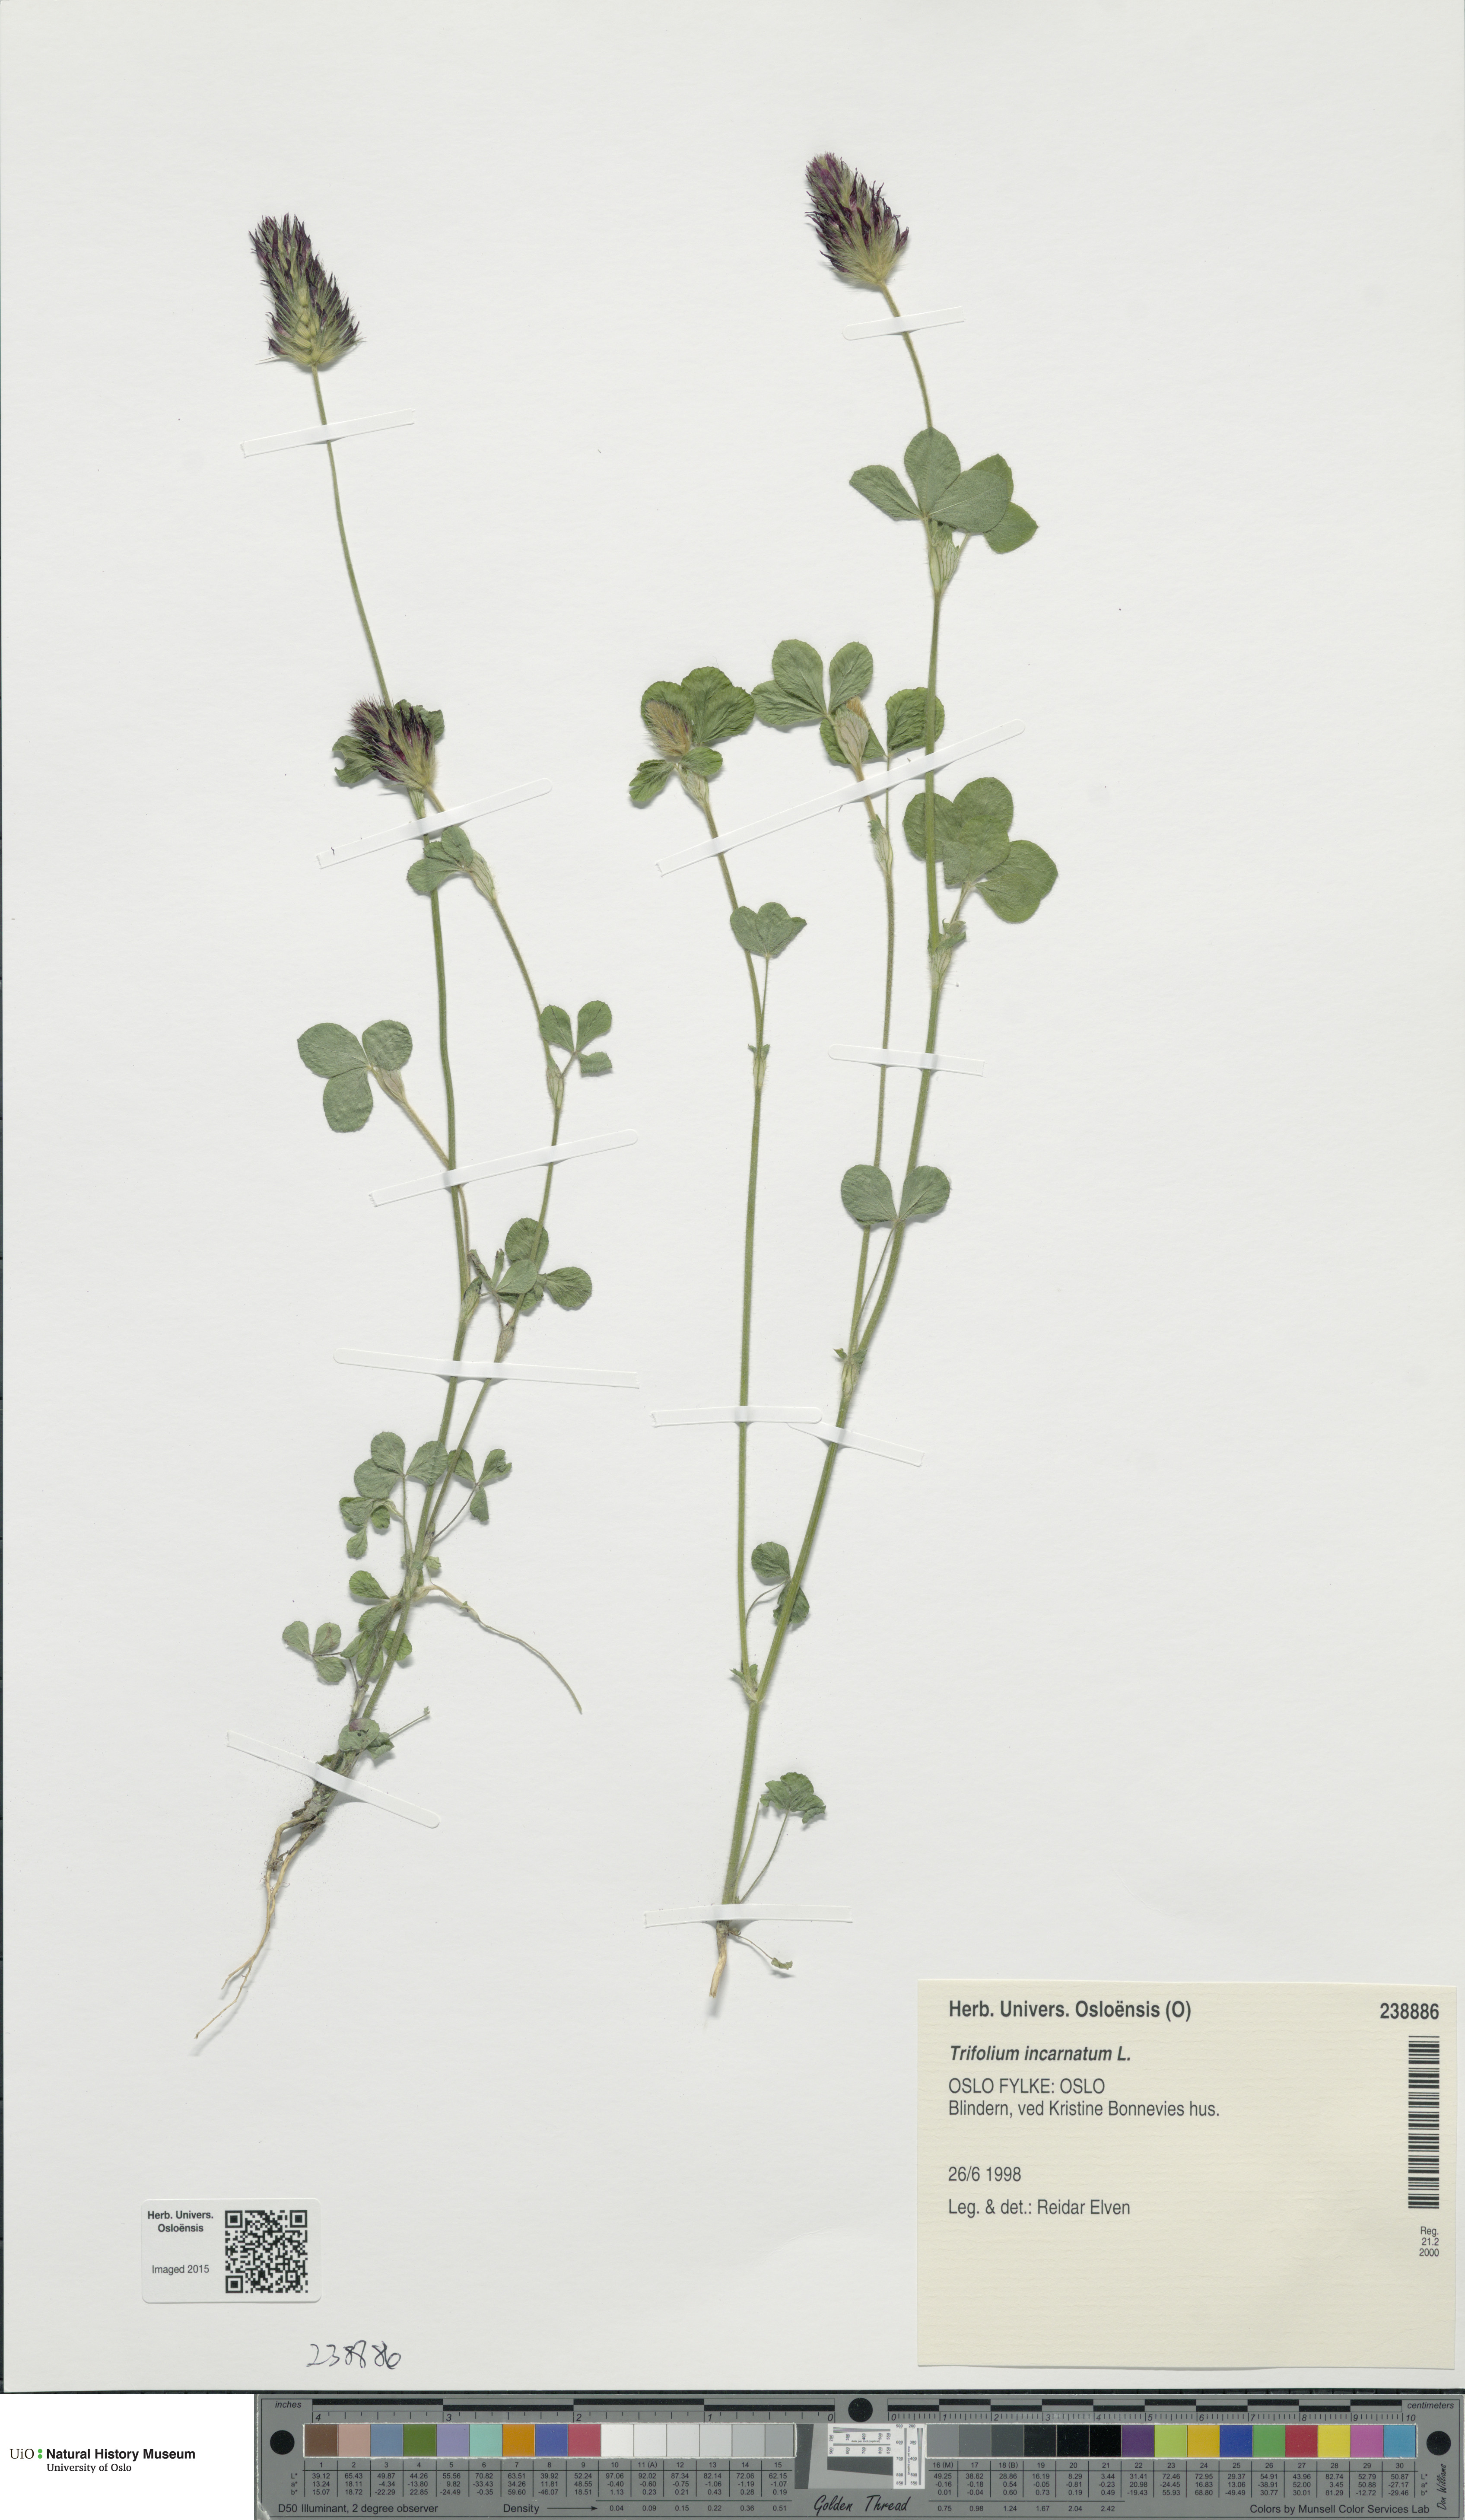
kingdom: Plantae
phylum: Tracheophyta
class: Magnoliopsida
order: Fabales
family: Fabaceae
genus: Trifolium
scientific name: Trifolium incarnatum
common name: Crimson clover
